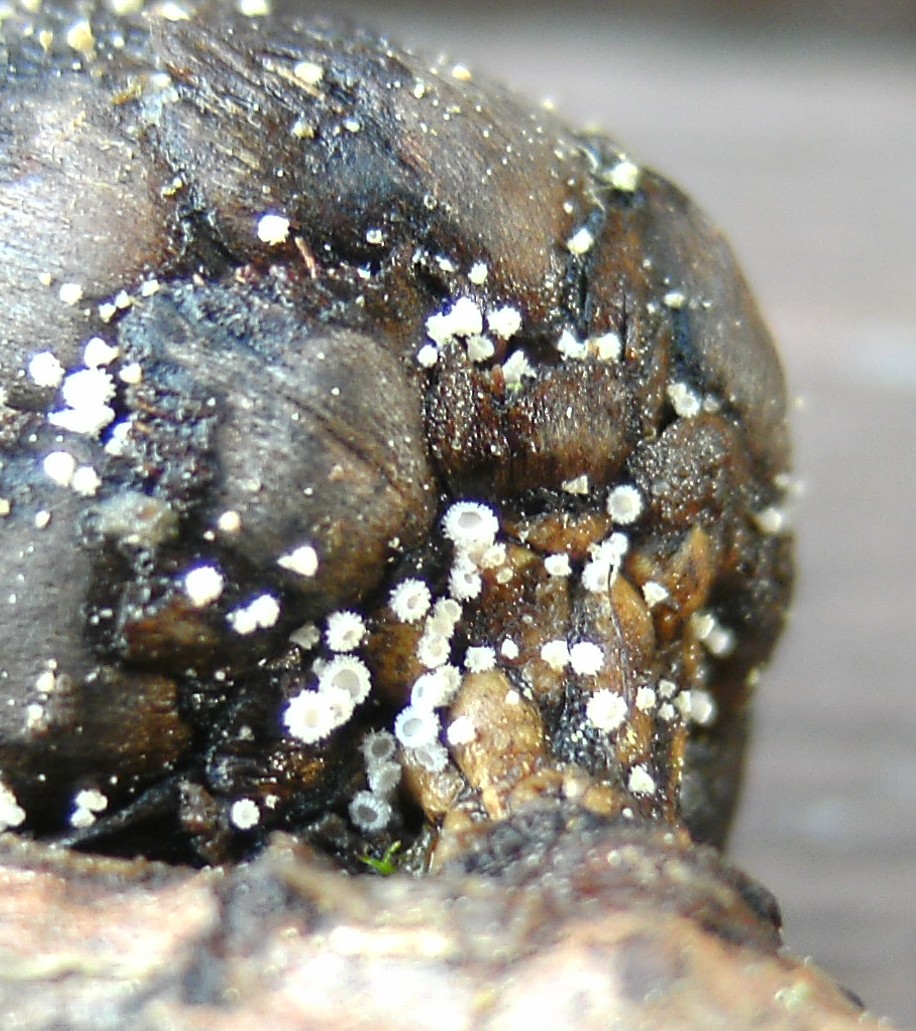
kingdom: Fungi
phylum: Ascomycota
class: Leotiomycetes
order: Helotiales
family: Lachnaceae
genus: Lachnum
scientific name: Lachnum virgineum
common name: jomfru-frynseskive
